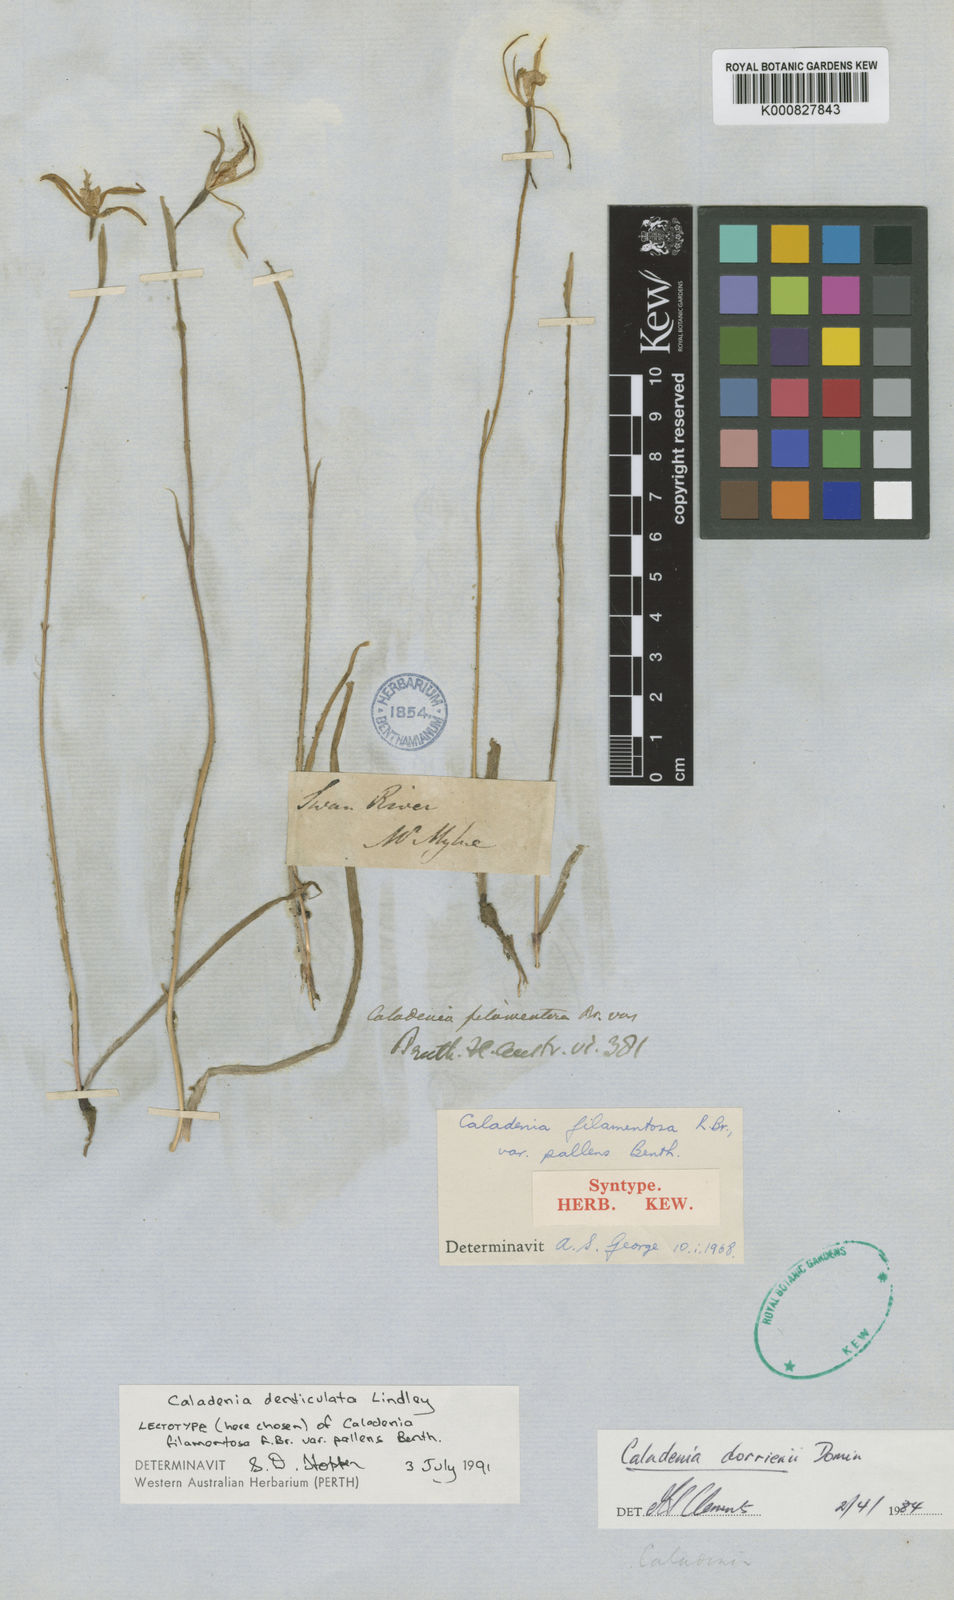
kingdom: Plantae
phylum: Tracheophyta
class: Liliopsida
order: Asparagales
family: Orchidaceae
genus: Caladenia
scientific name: Caladenia denticulata
